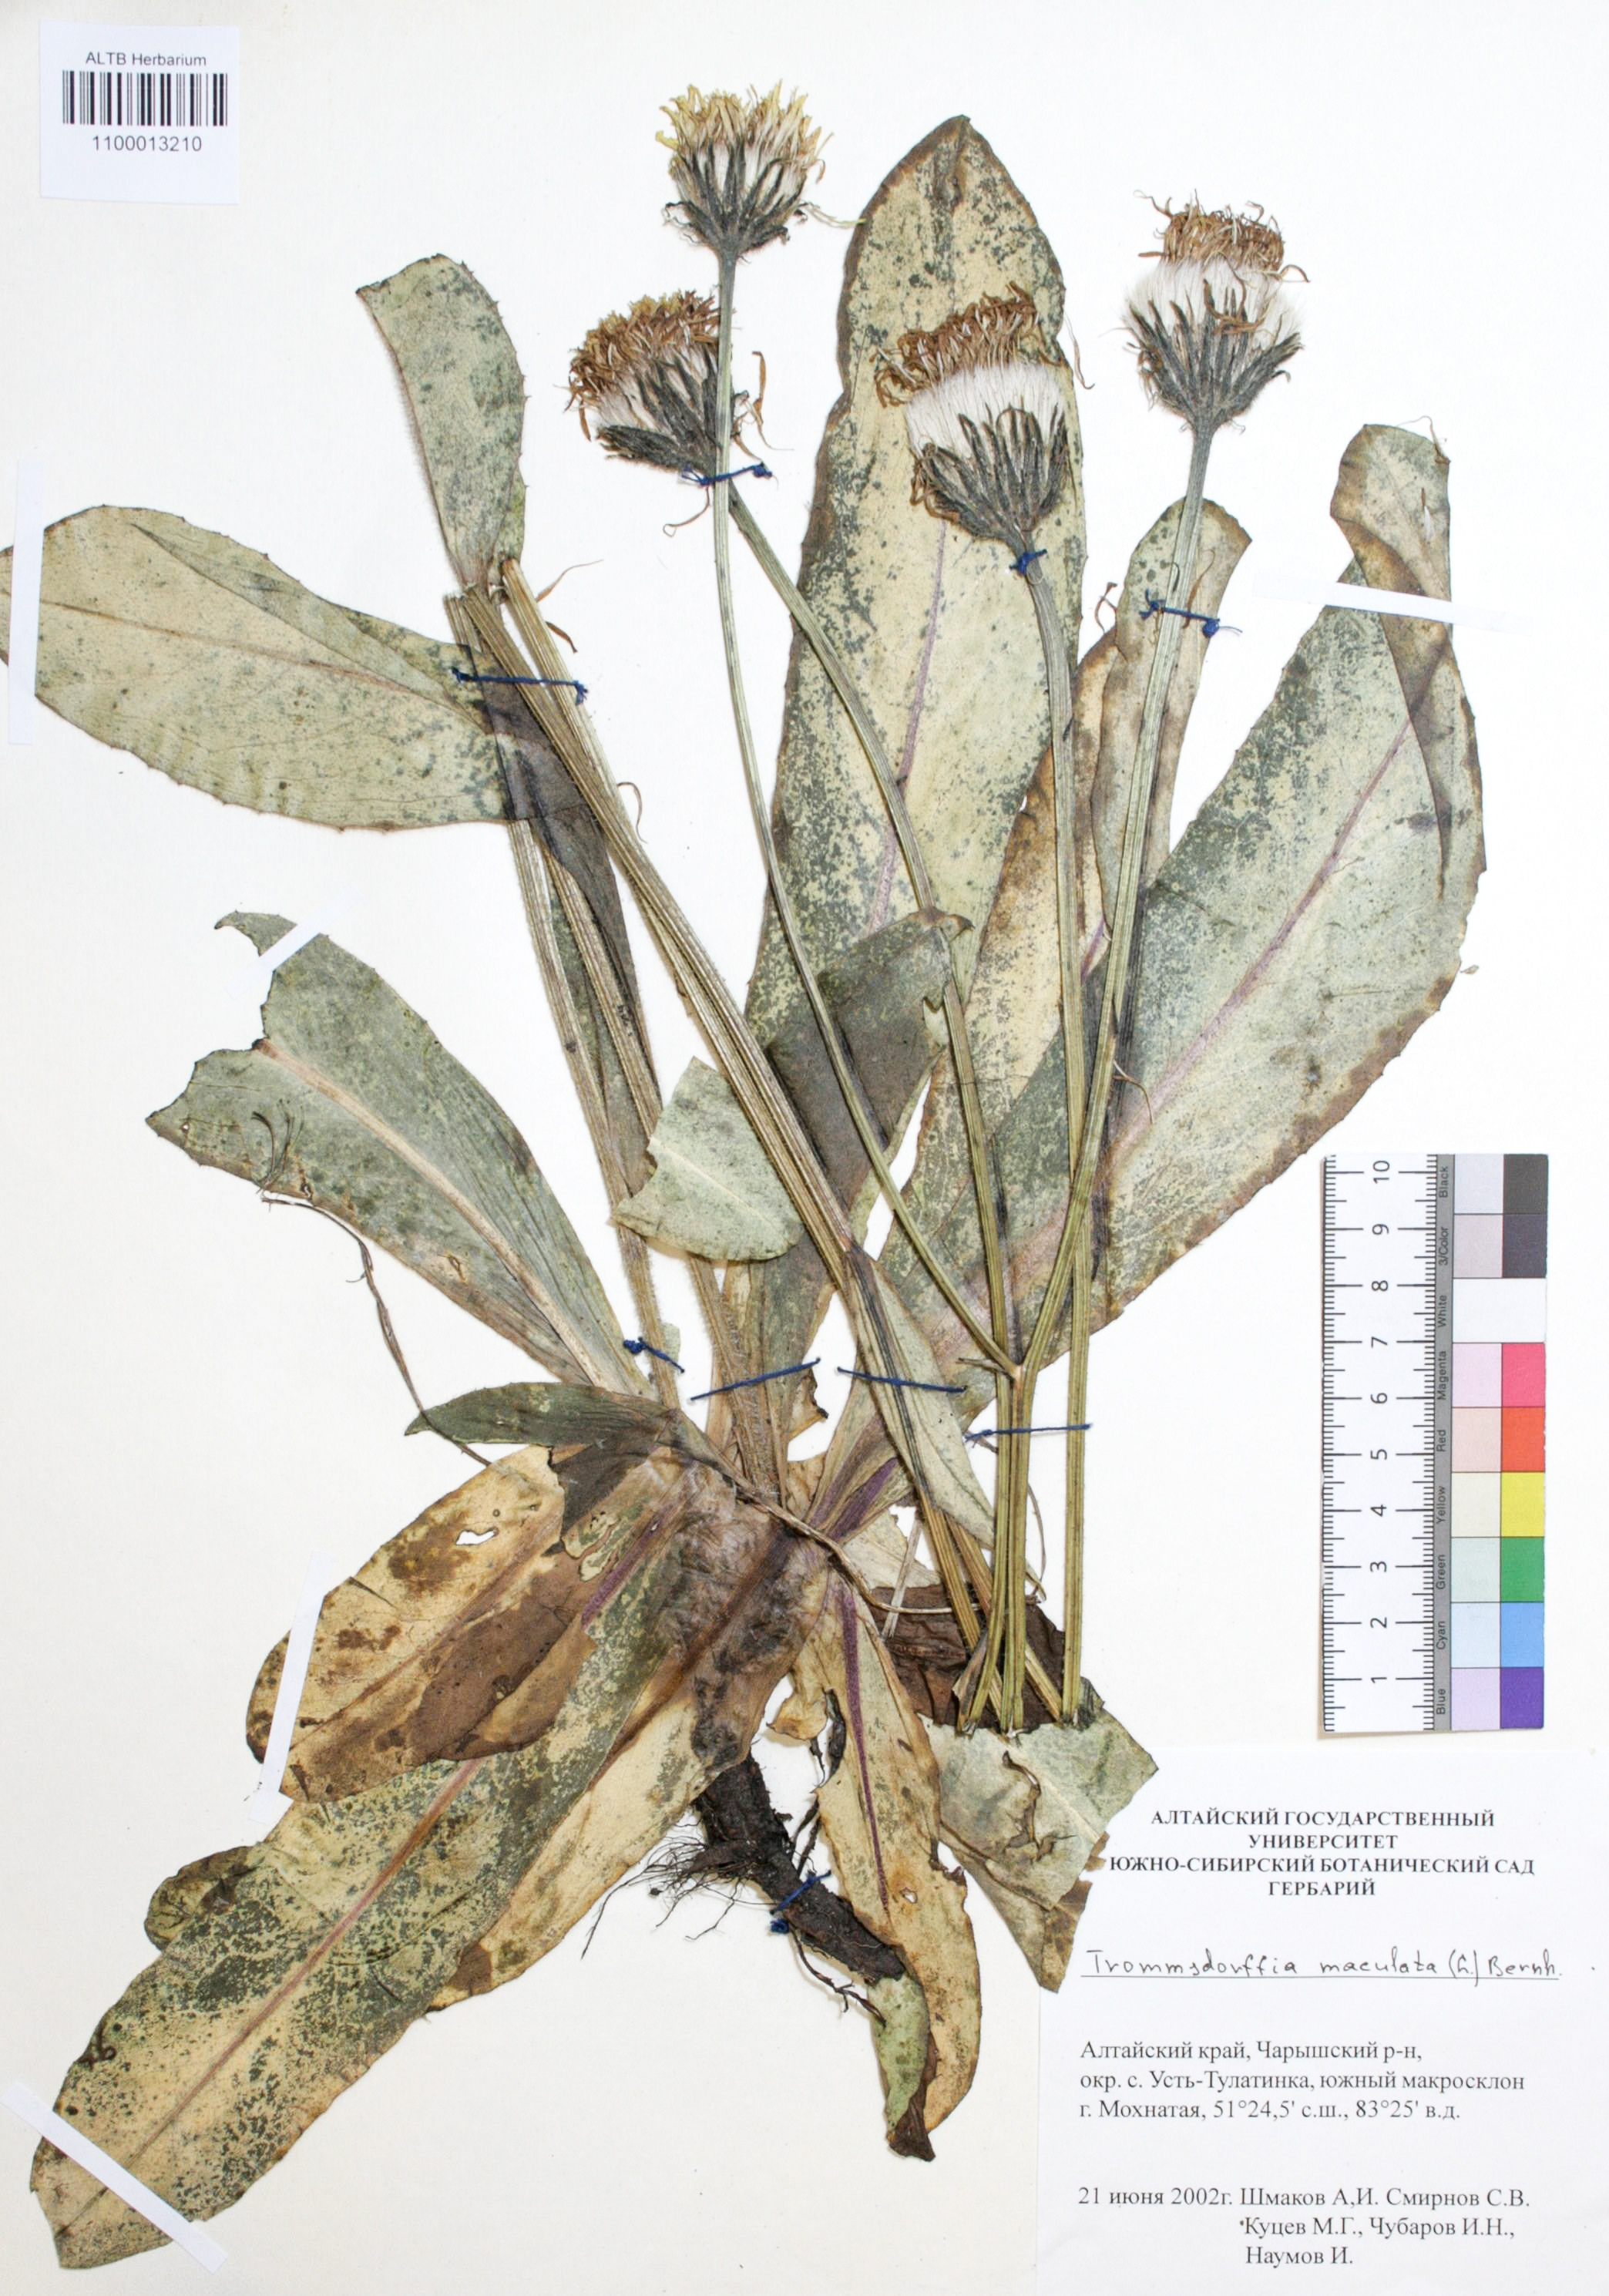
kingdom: Plantae
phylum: Tracheophyta
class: Magnoliopsida
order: Asterales
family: Asteraceae
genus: Trommsdorffia
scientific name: Trommsdorffia maculata
